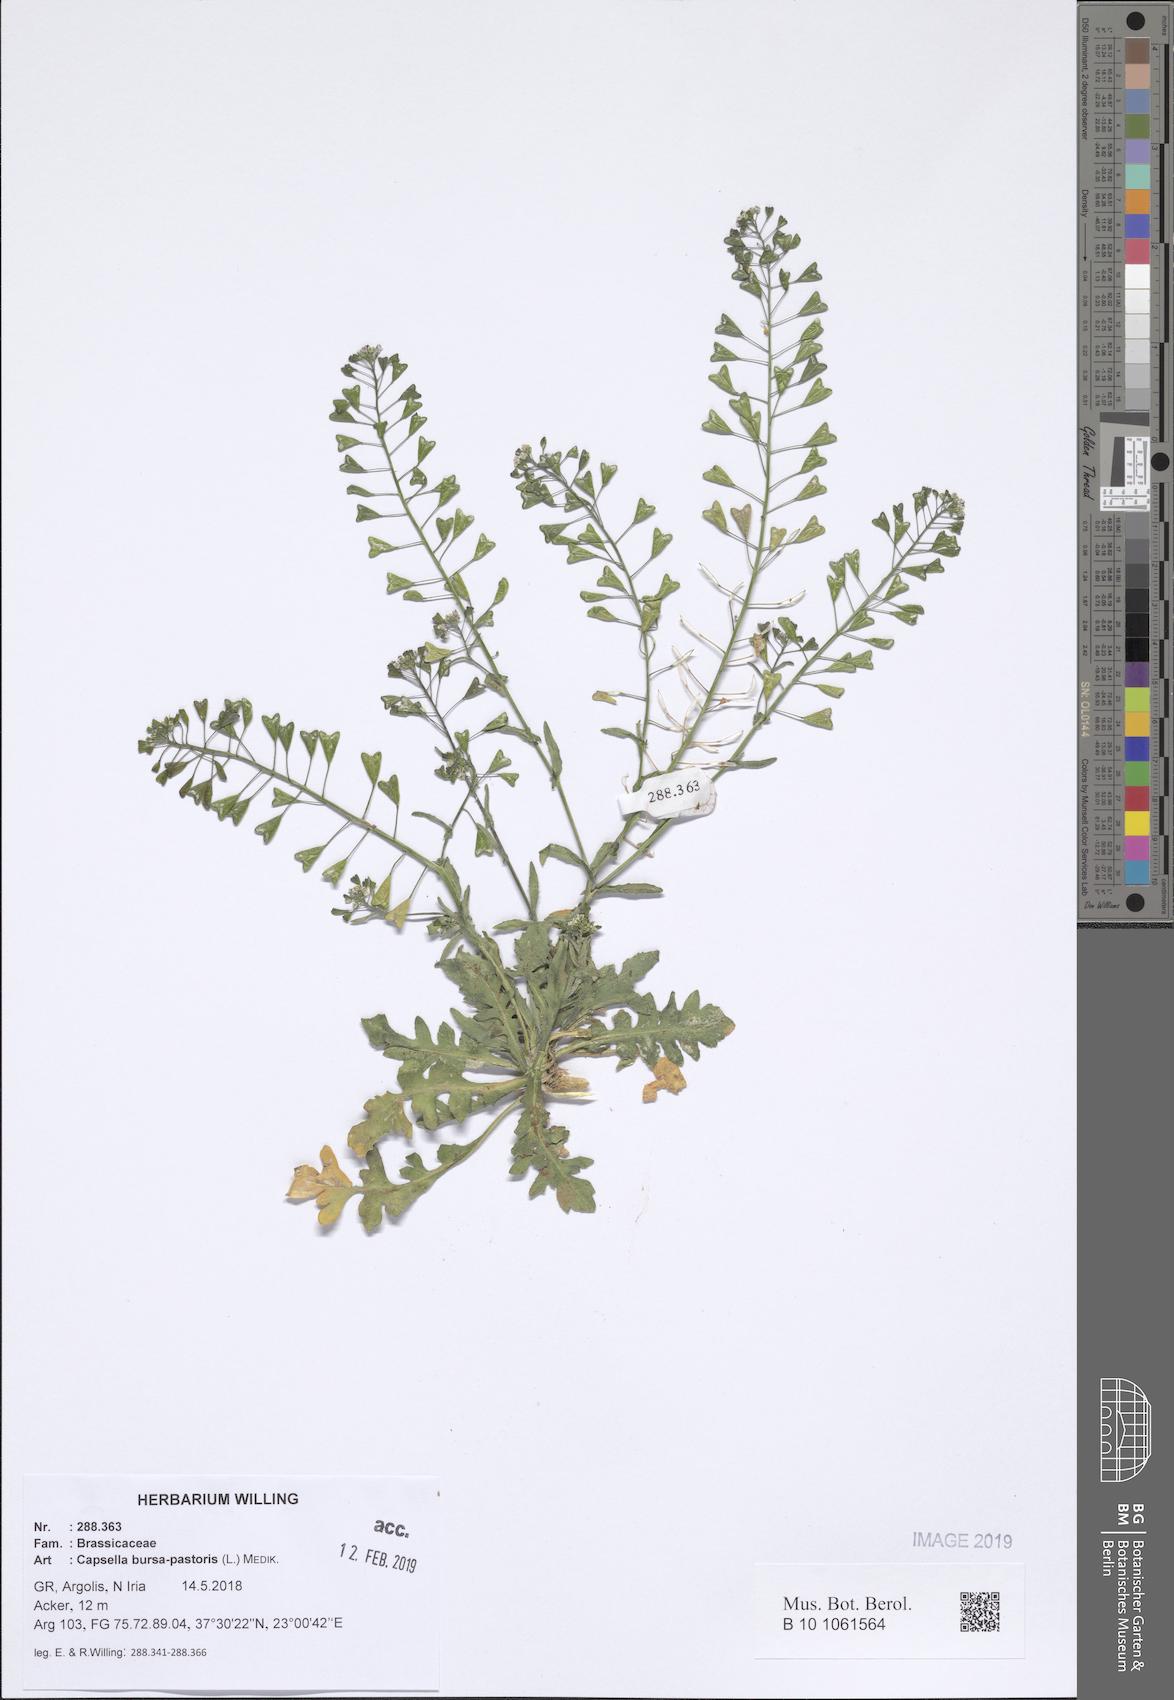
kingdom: Plantae
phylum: Tracheophyta
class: Magnoliopsida
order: Brassicales
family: Brassicaceae
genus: Capsella
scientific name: Capsella bursa-pastoris
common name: Shepherd's purse
